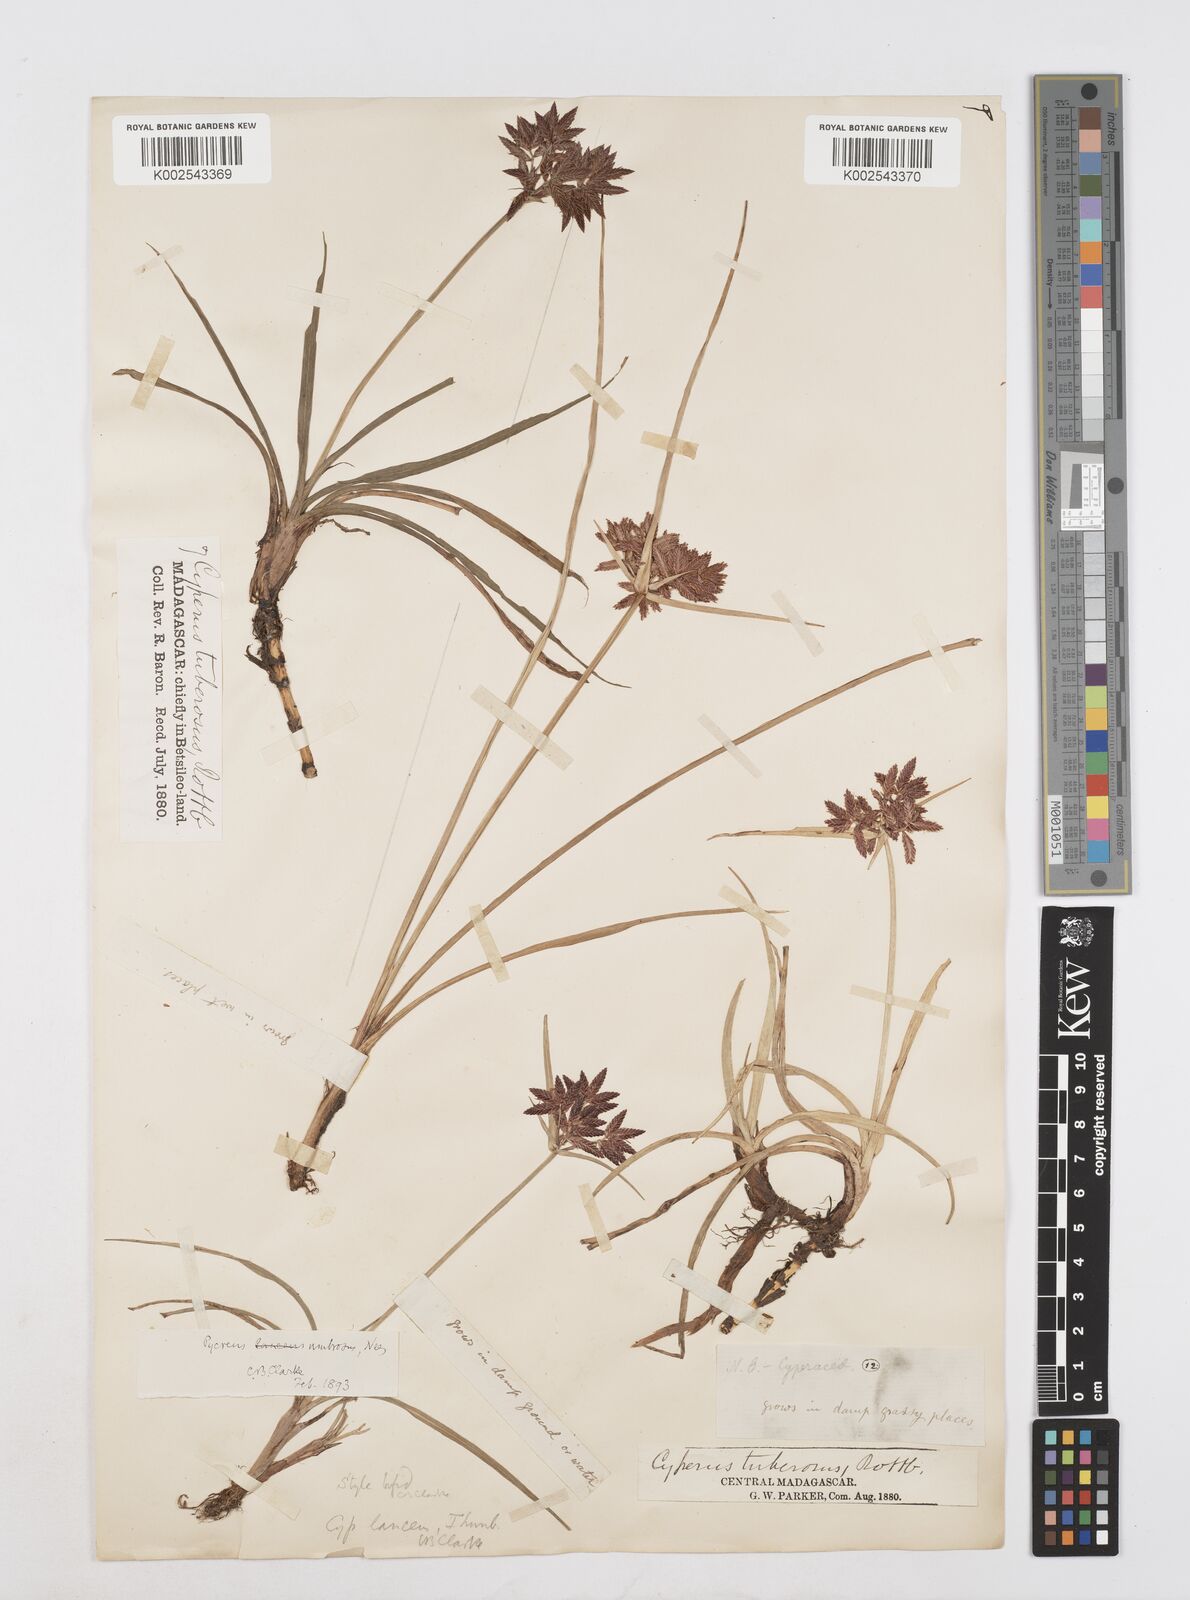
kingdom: Plantae
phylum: Tracheophyta
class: Liliopsida
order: Poales
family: Cyperaceae
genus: Cyperus
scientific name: Cyperus nitidus
